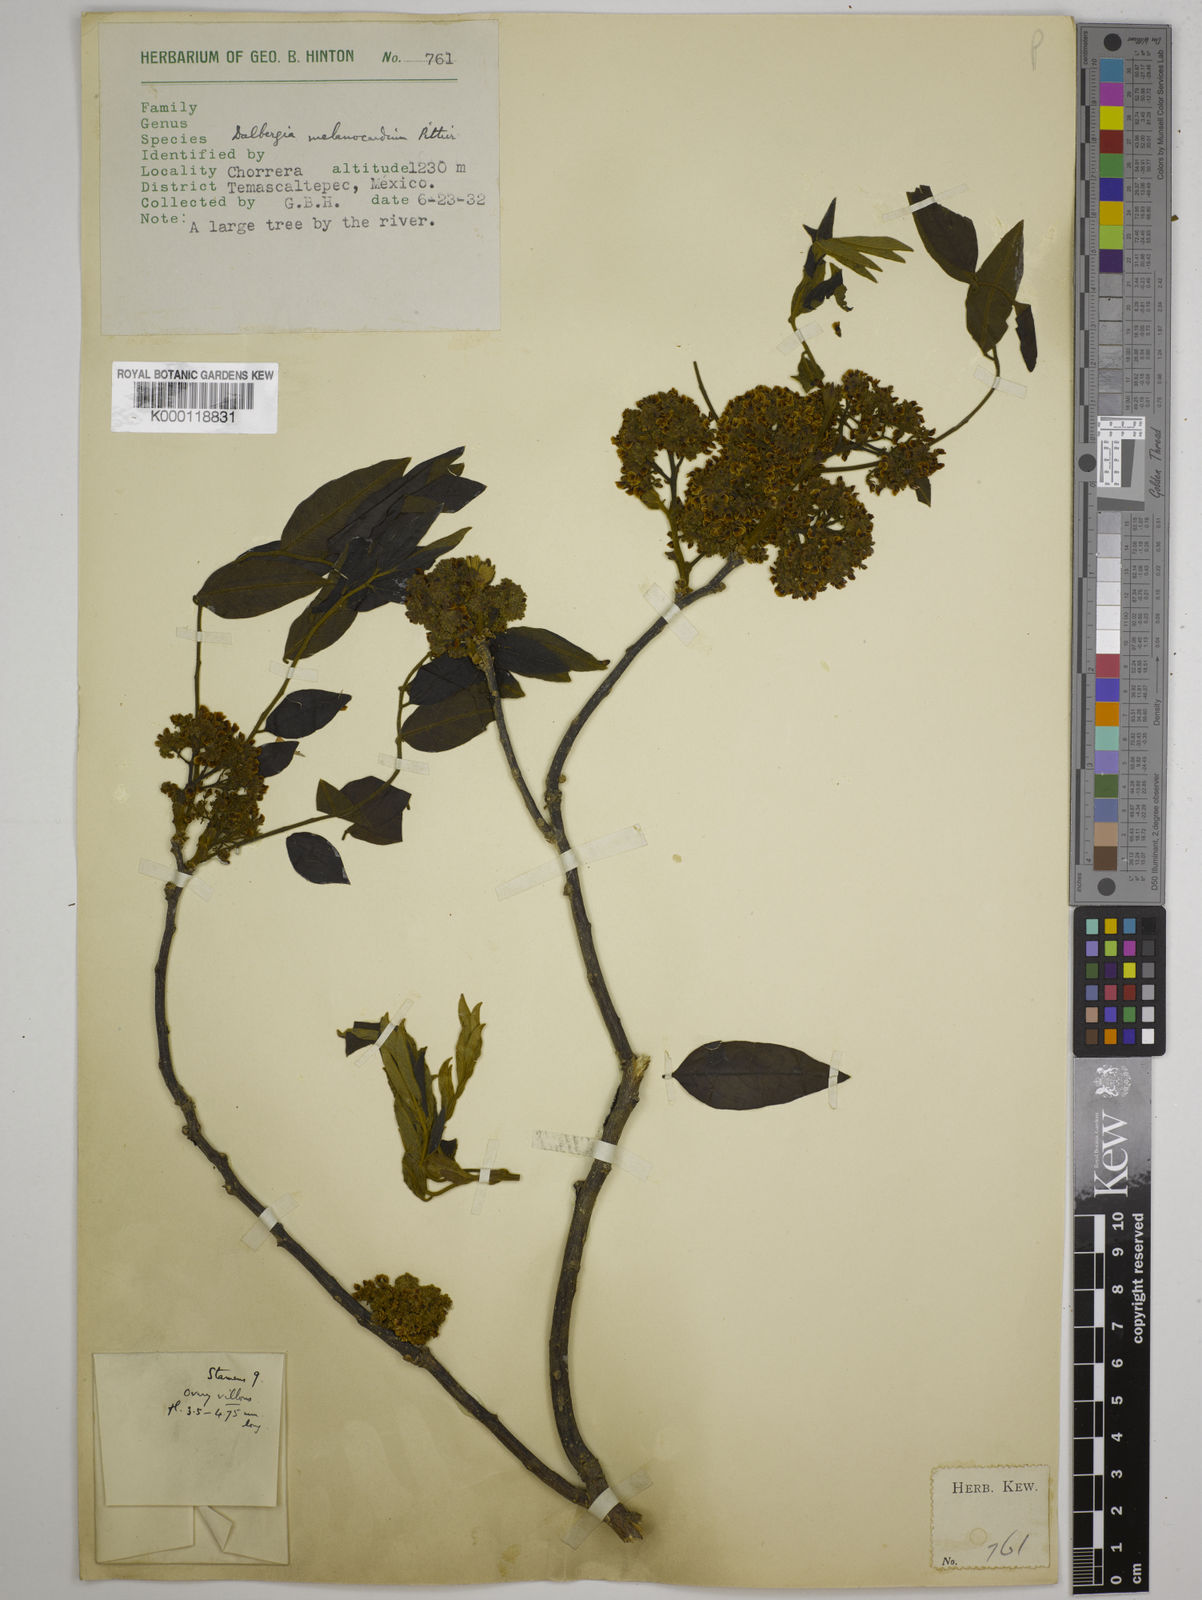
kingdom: Plantae
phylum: Tracheophyta
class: Magnoliopsida
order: Fabales
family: Fabaceae
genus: Dalbergia
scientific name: Dalbergia melanocardium
